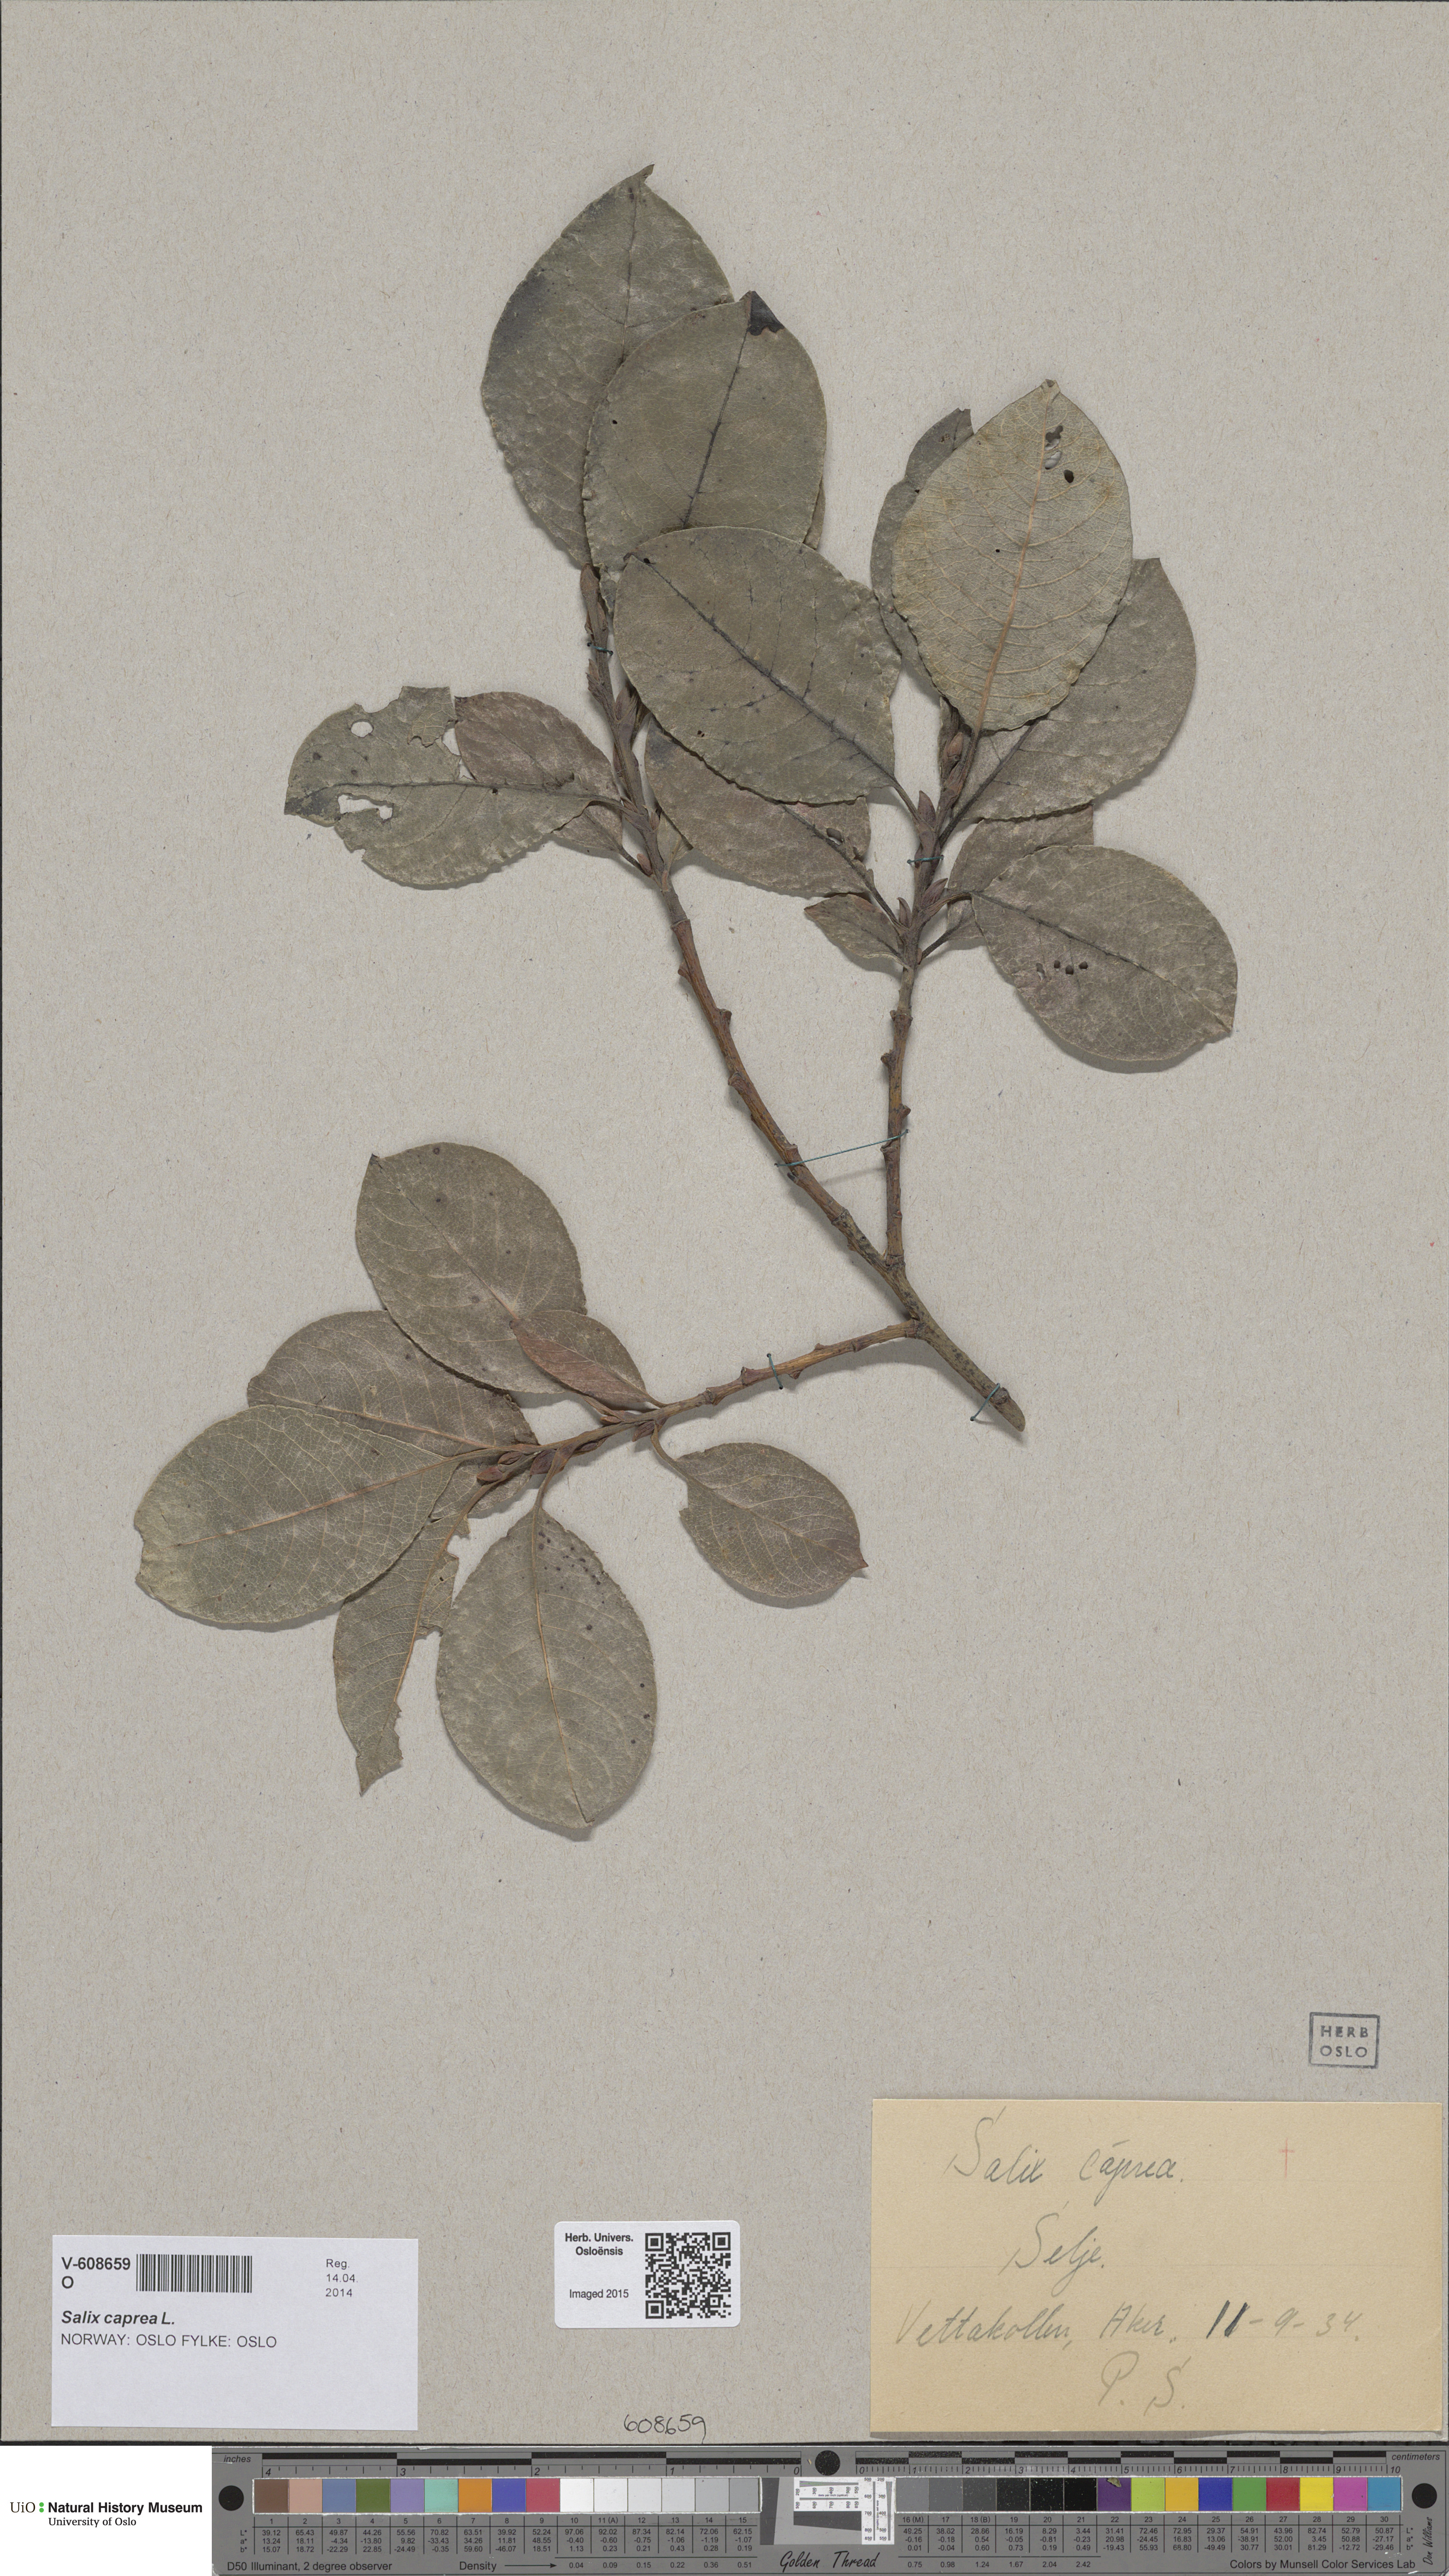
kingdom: Plantae
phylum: Tracheophyta
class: Magnoliopsida
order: Malpighiales
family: Salicaceae
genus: Salix
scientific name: Salix caprea
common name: Goat willow
